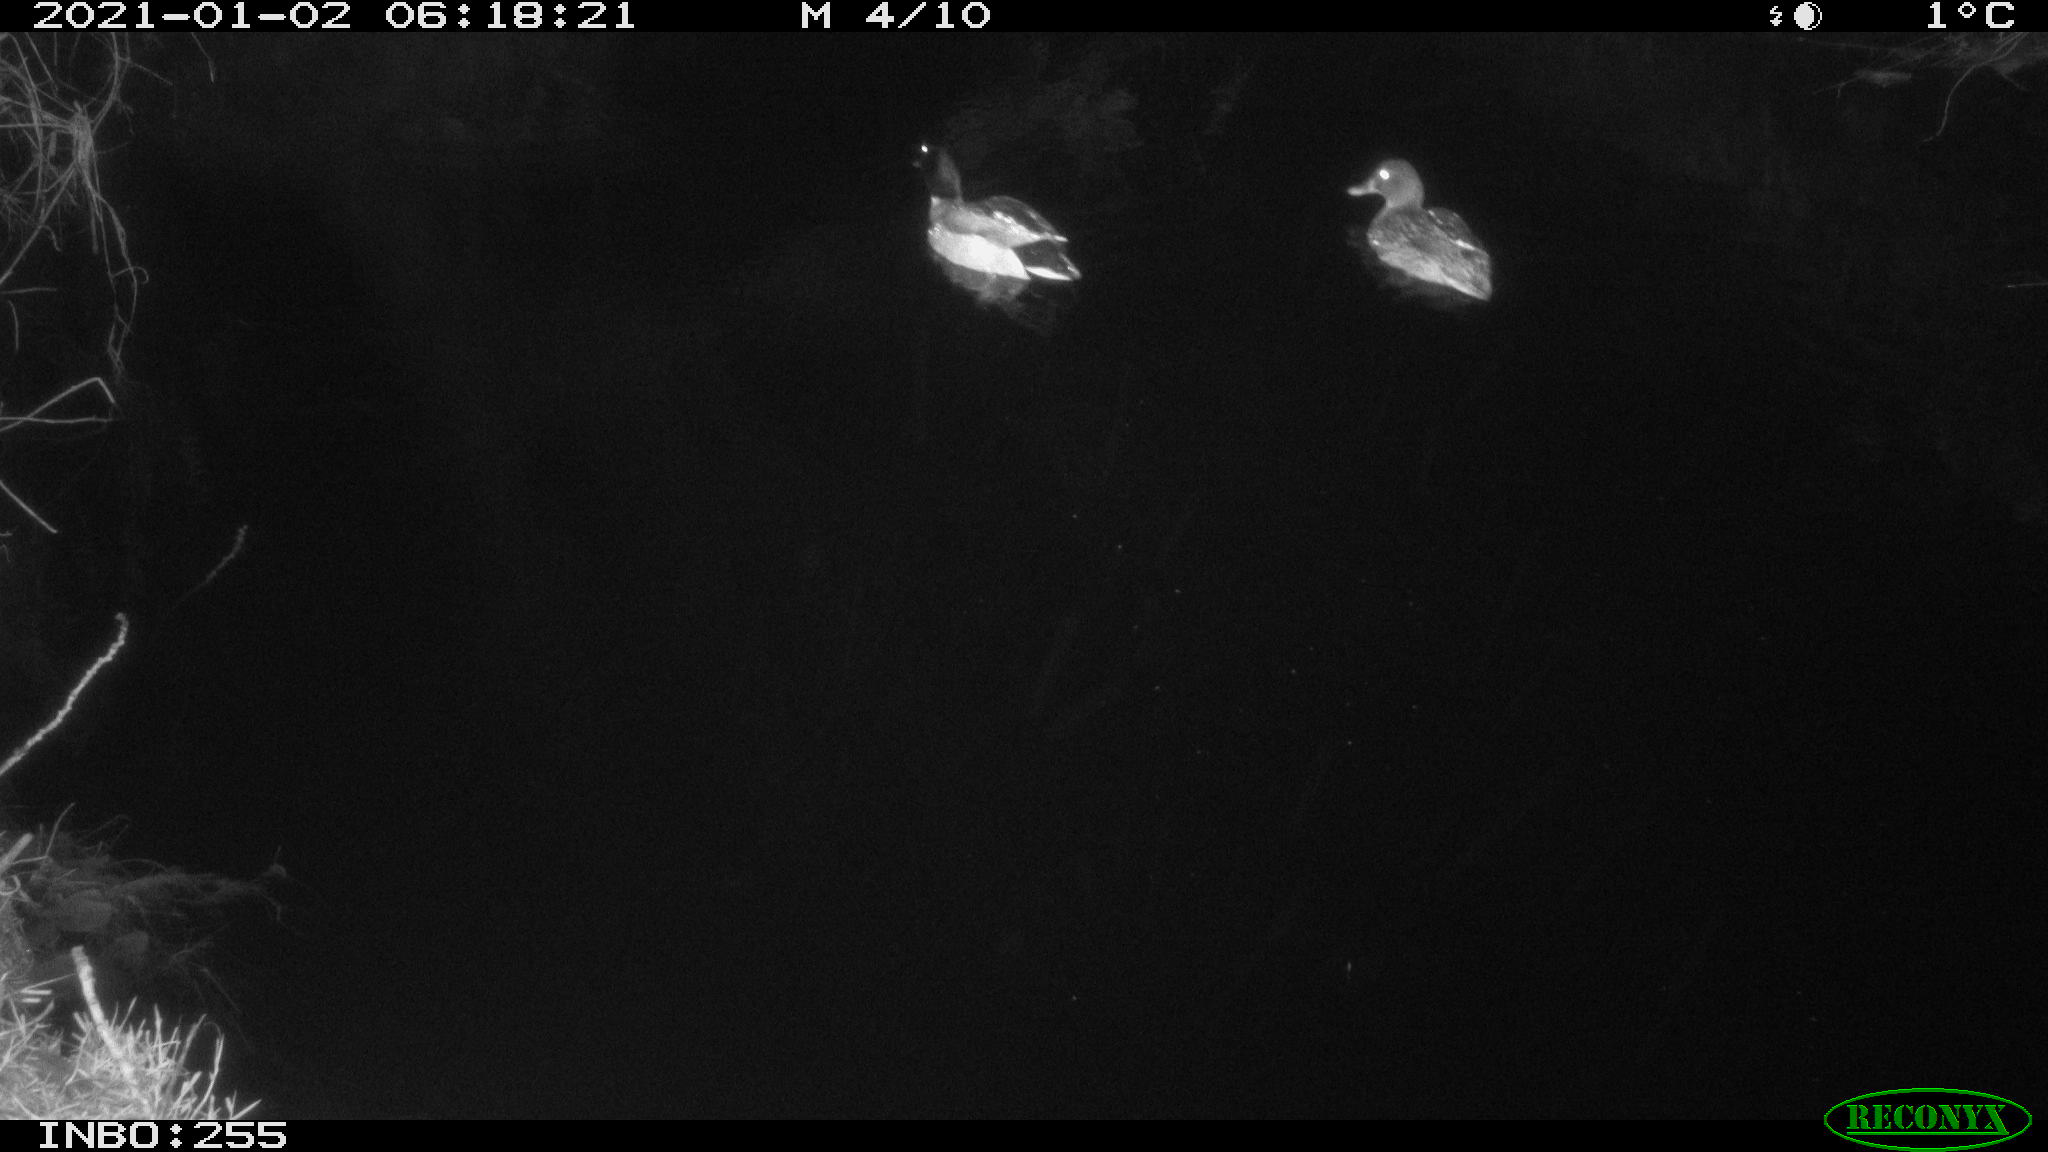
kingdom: Animalia
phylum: Chordata
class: Aves
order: Anseriformes
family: Anatidae
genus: Anas
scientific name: Anas platyrhynchos
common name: Mallard
